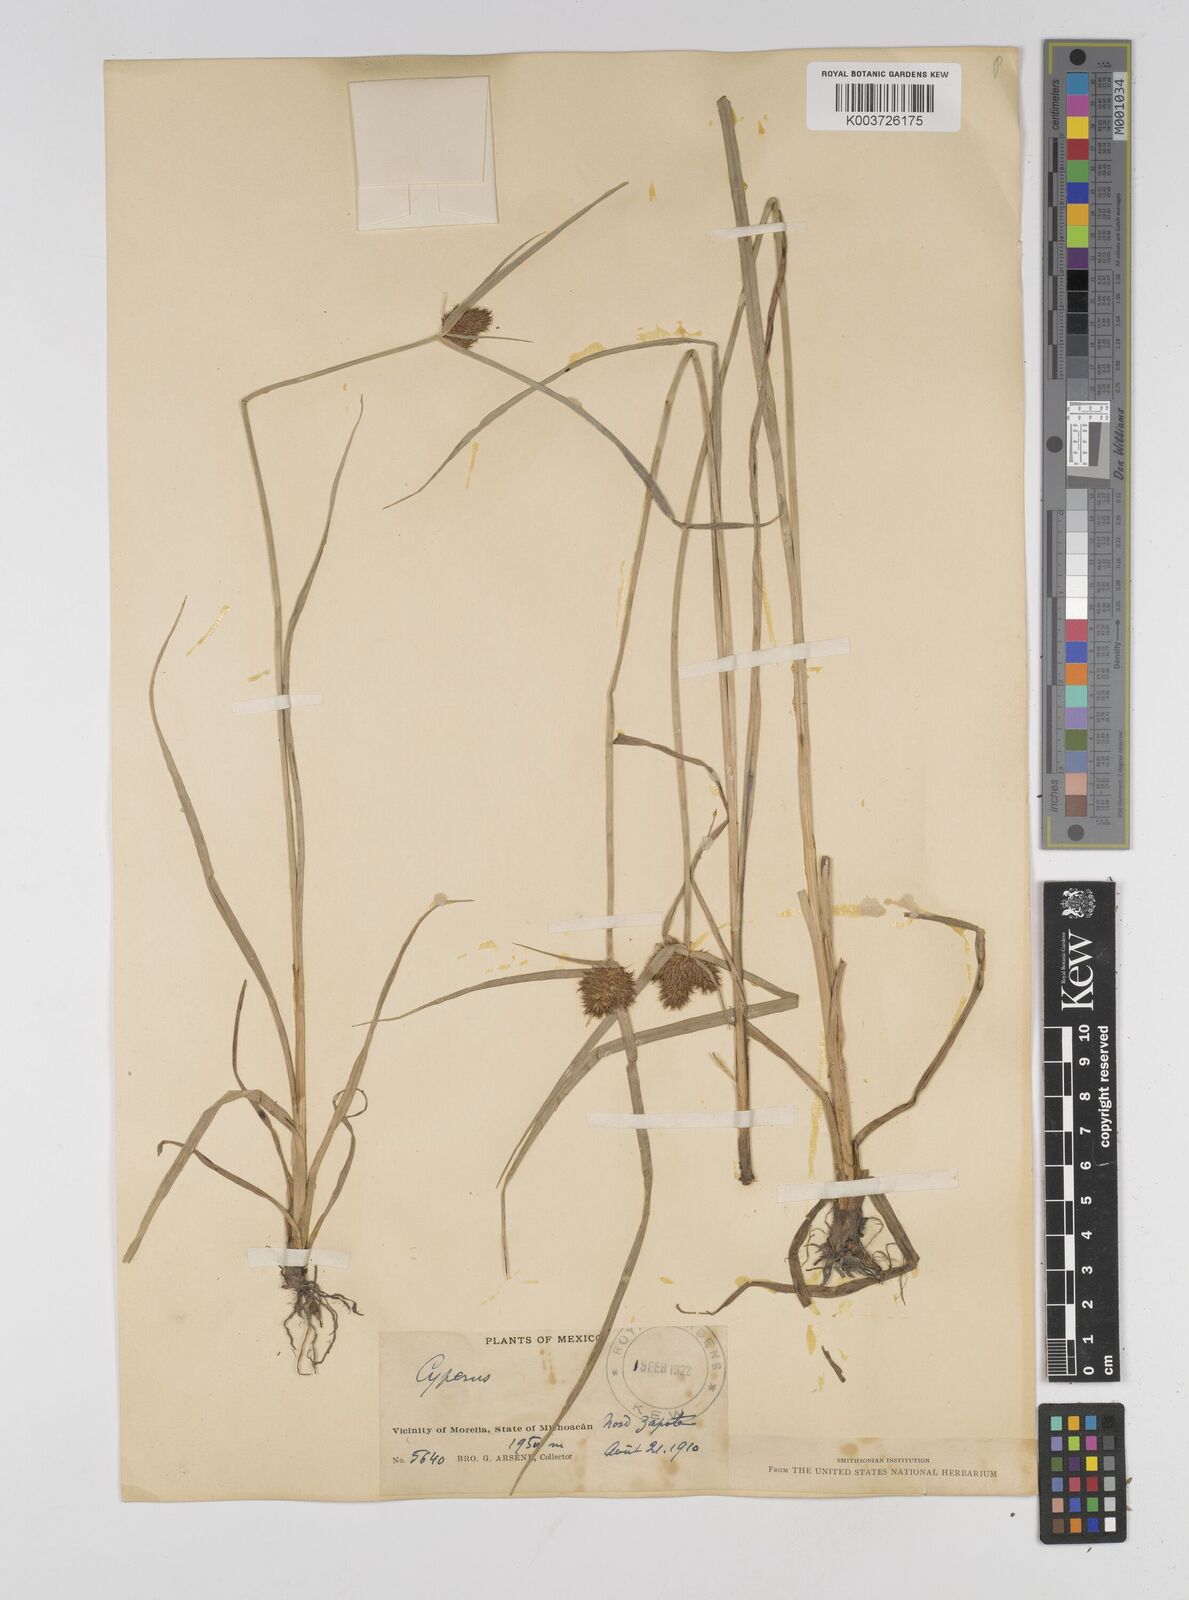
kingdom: Plantae
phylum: Tracheophyta
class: Liliopsida
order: Poales
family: Cyperaceae
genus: Cyperus
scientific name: Cyperus sanguineoater
